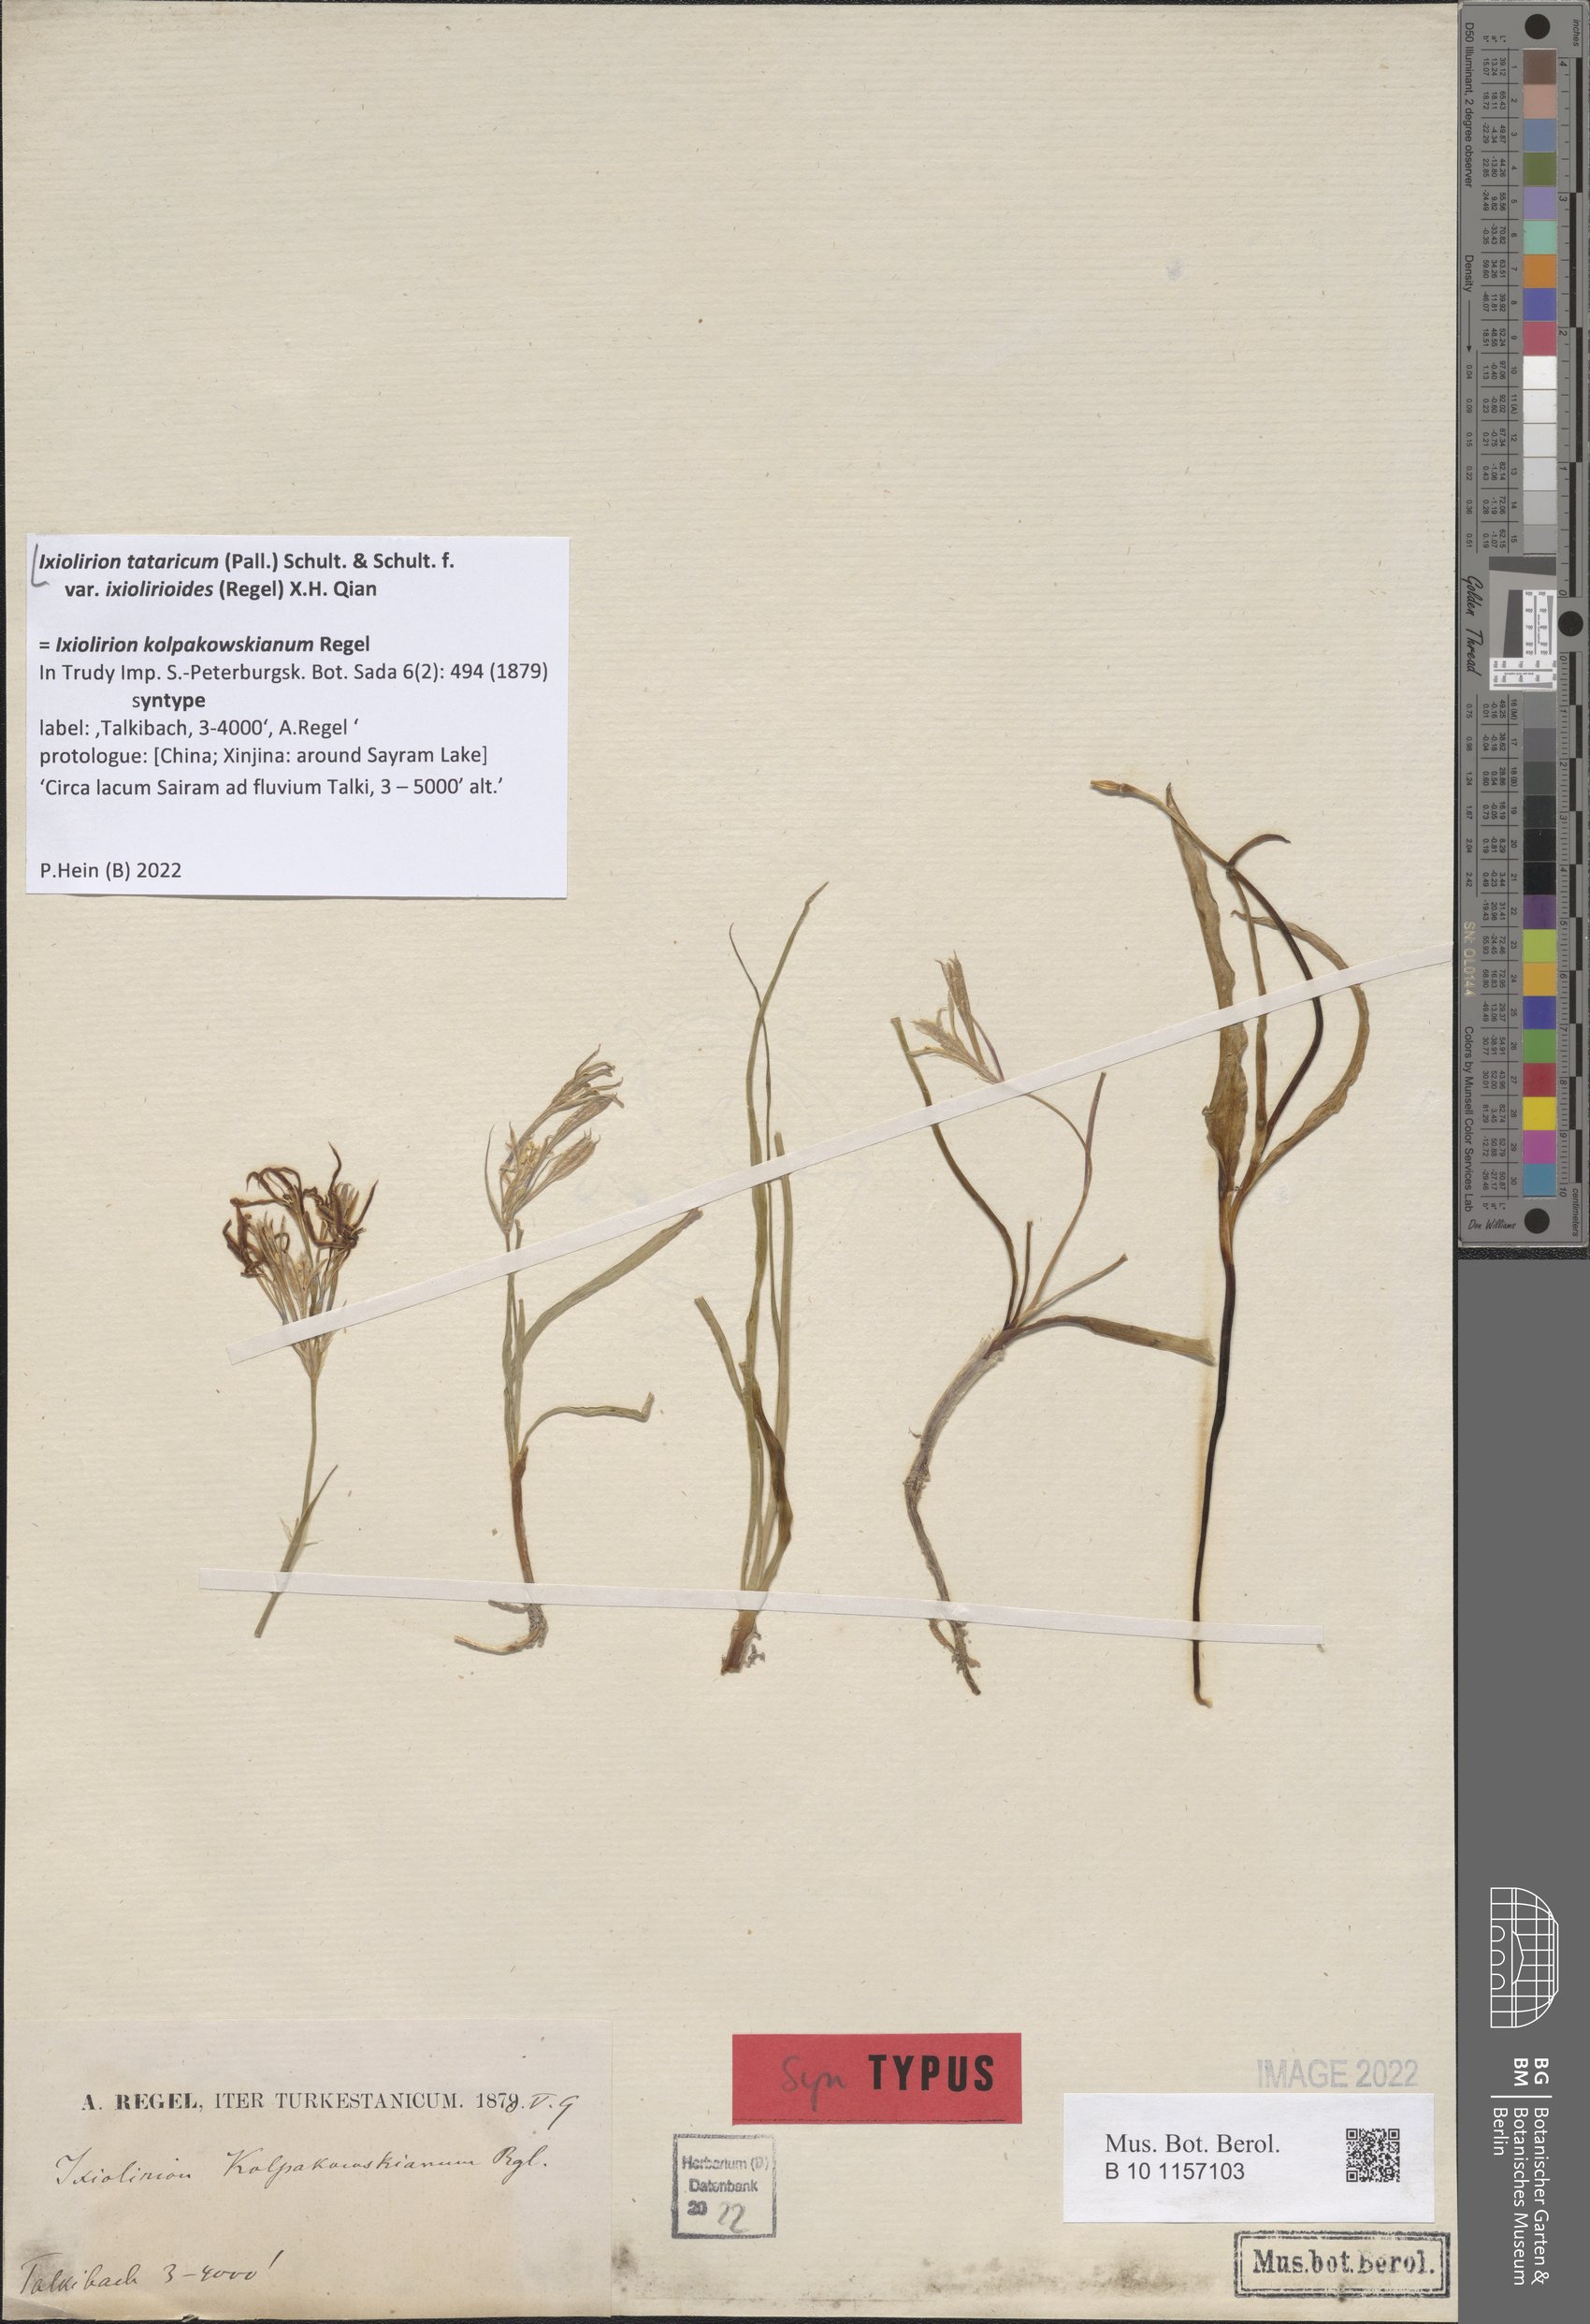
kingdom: Plantae
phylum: Tracheophyta
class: Liliopsida
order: Asparagales
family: Ixioliriaceae
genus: Ixiolirion
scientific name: Ixiolirion tataricum
